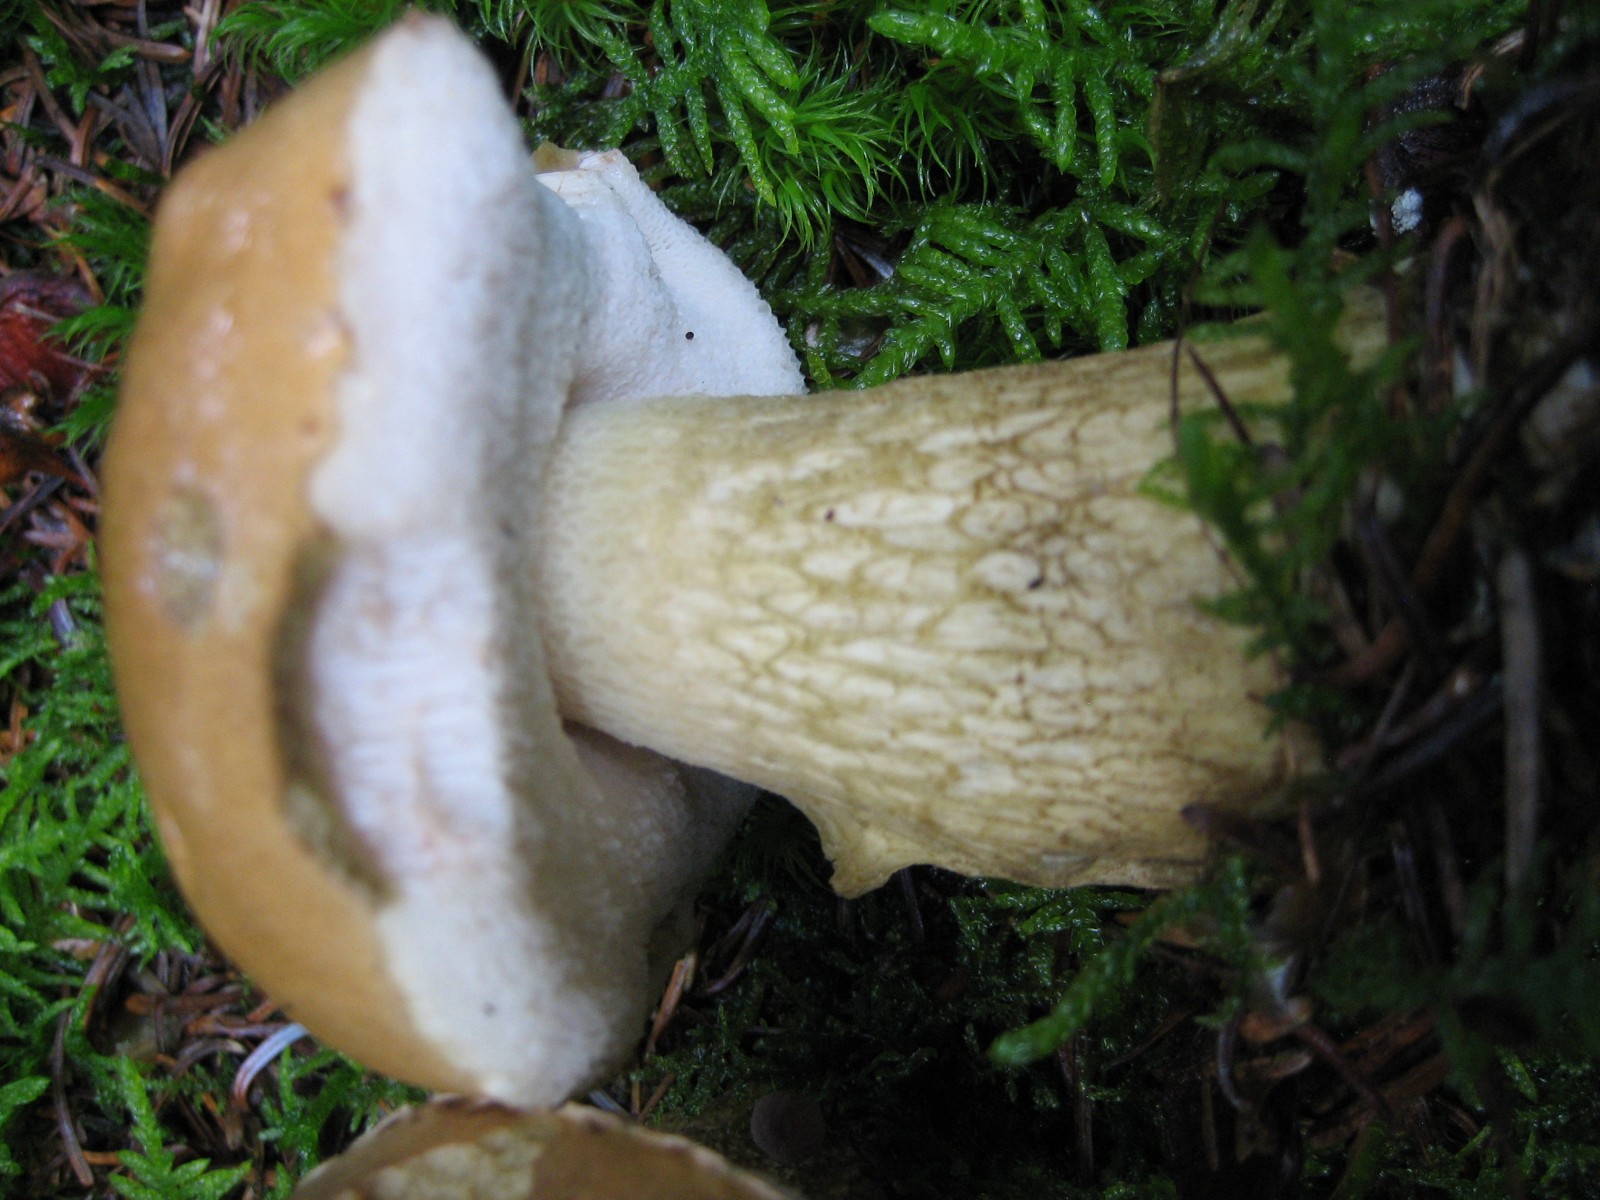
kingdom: Fungi
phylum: Basidiomycota
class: Agaricomycetes
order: Boletales
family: Boletaceae
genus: Tylopilus
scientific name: Tylopilus felleus
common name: galderørhat
